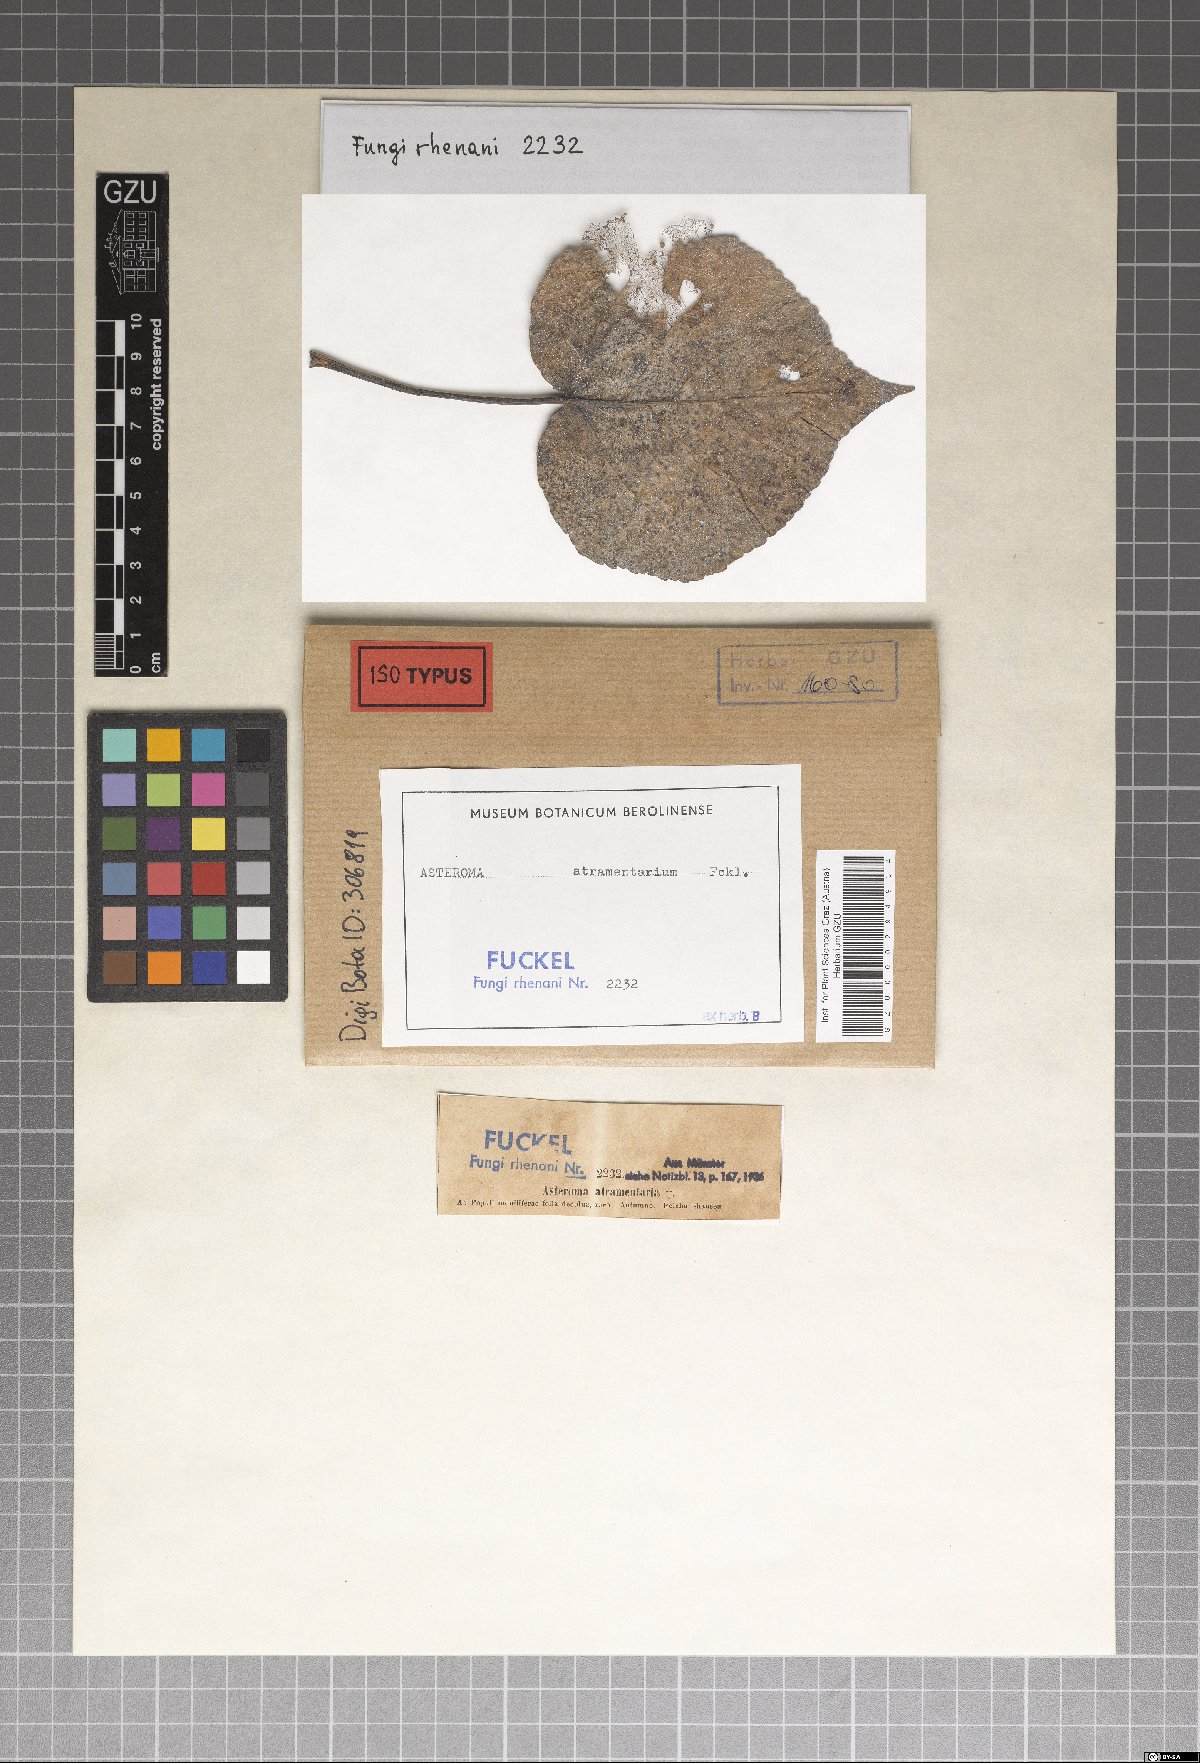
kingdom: Fungi
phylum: Ascomycota
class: Sordariomycetes
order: Diaporthales
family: Gnomoniaceae
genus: Asteroma
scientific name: Asteroma
